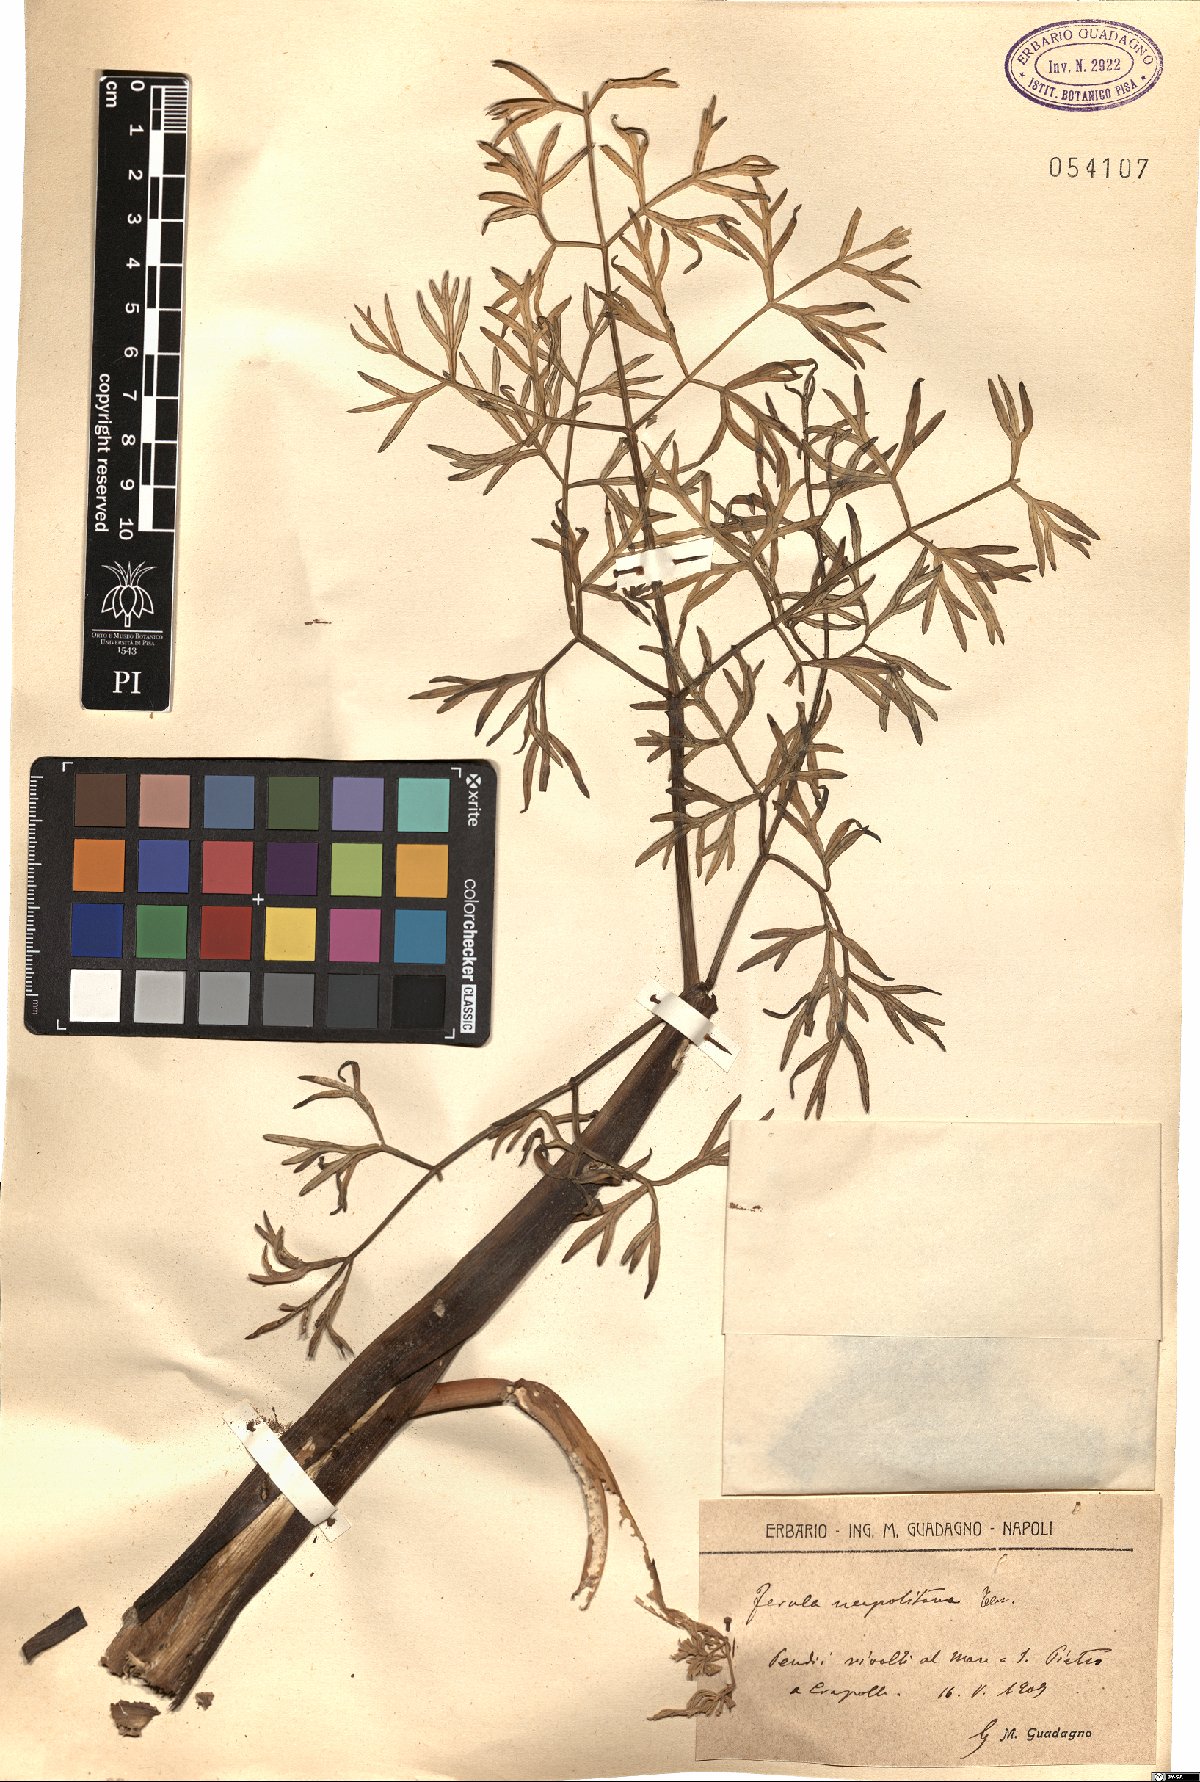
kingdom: Plantae
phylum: Tracheophyta
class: Magnoliopsida
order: Apiales
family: Apiaceae
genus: Ferula
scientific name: Ferula glauca
